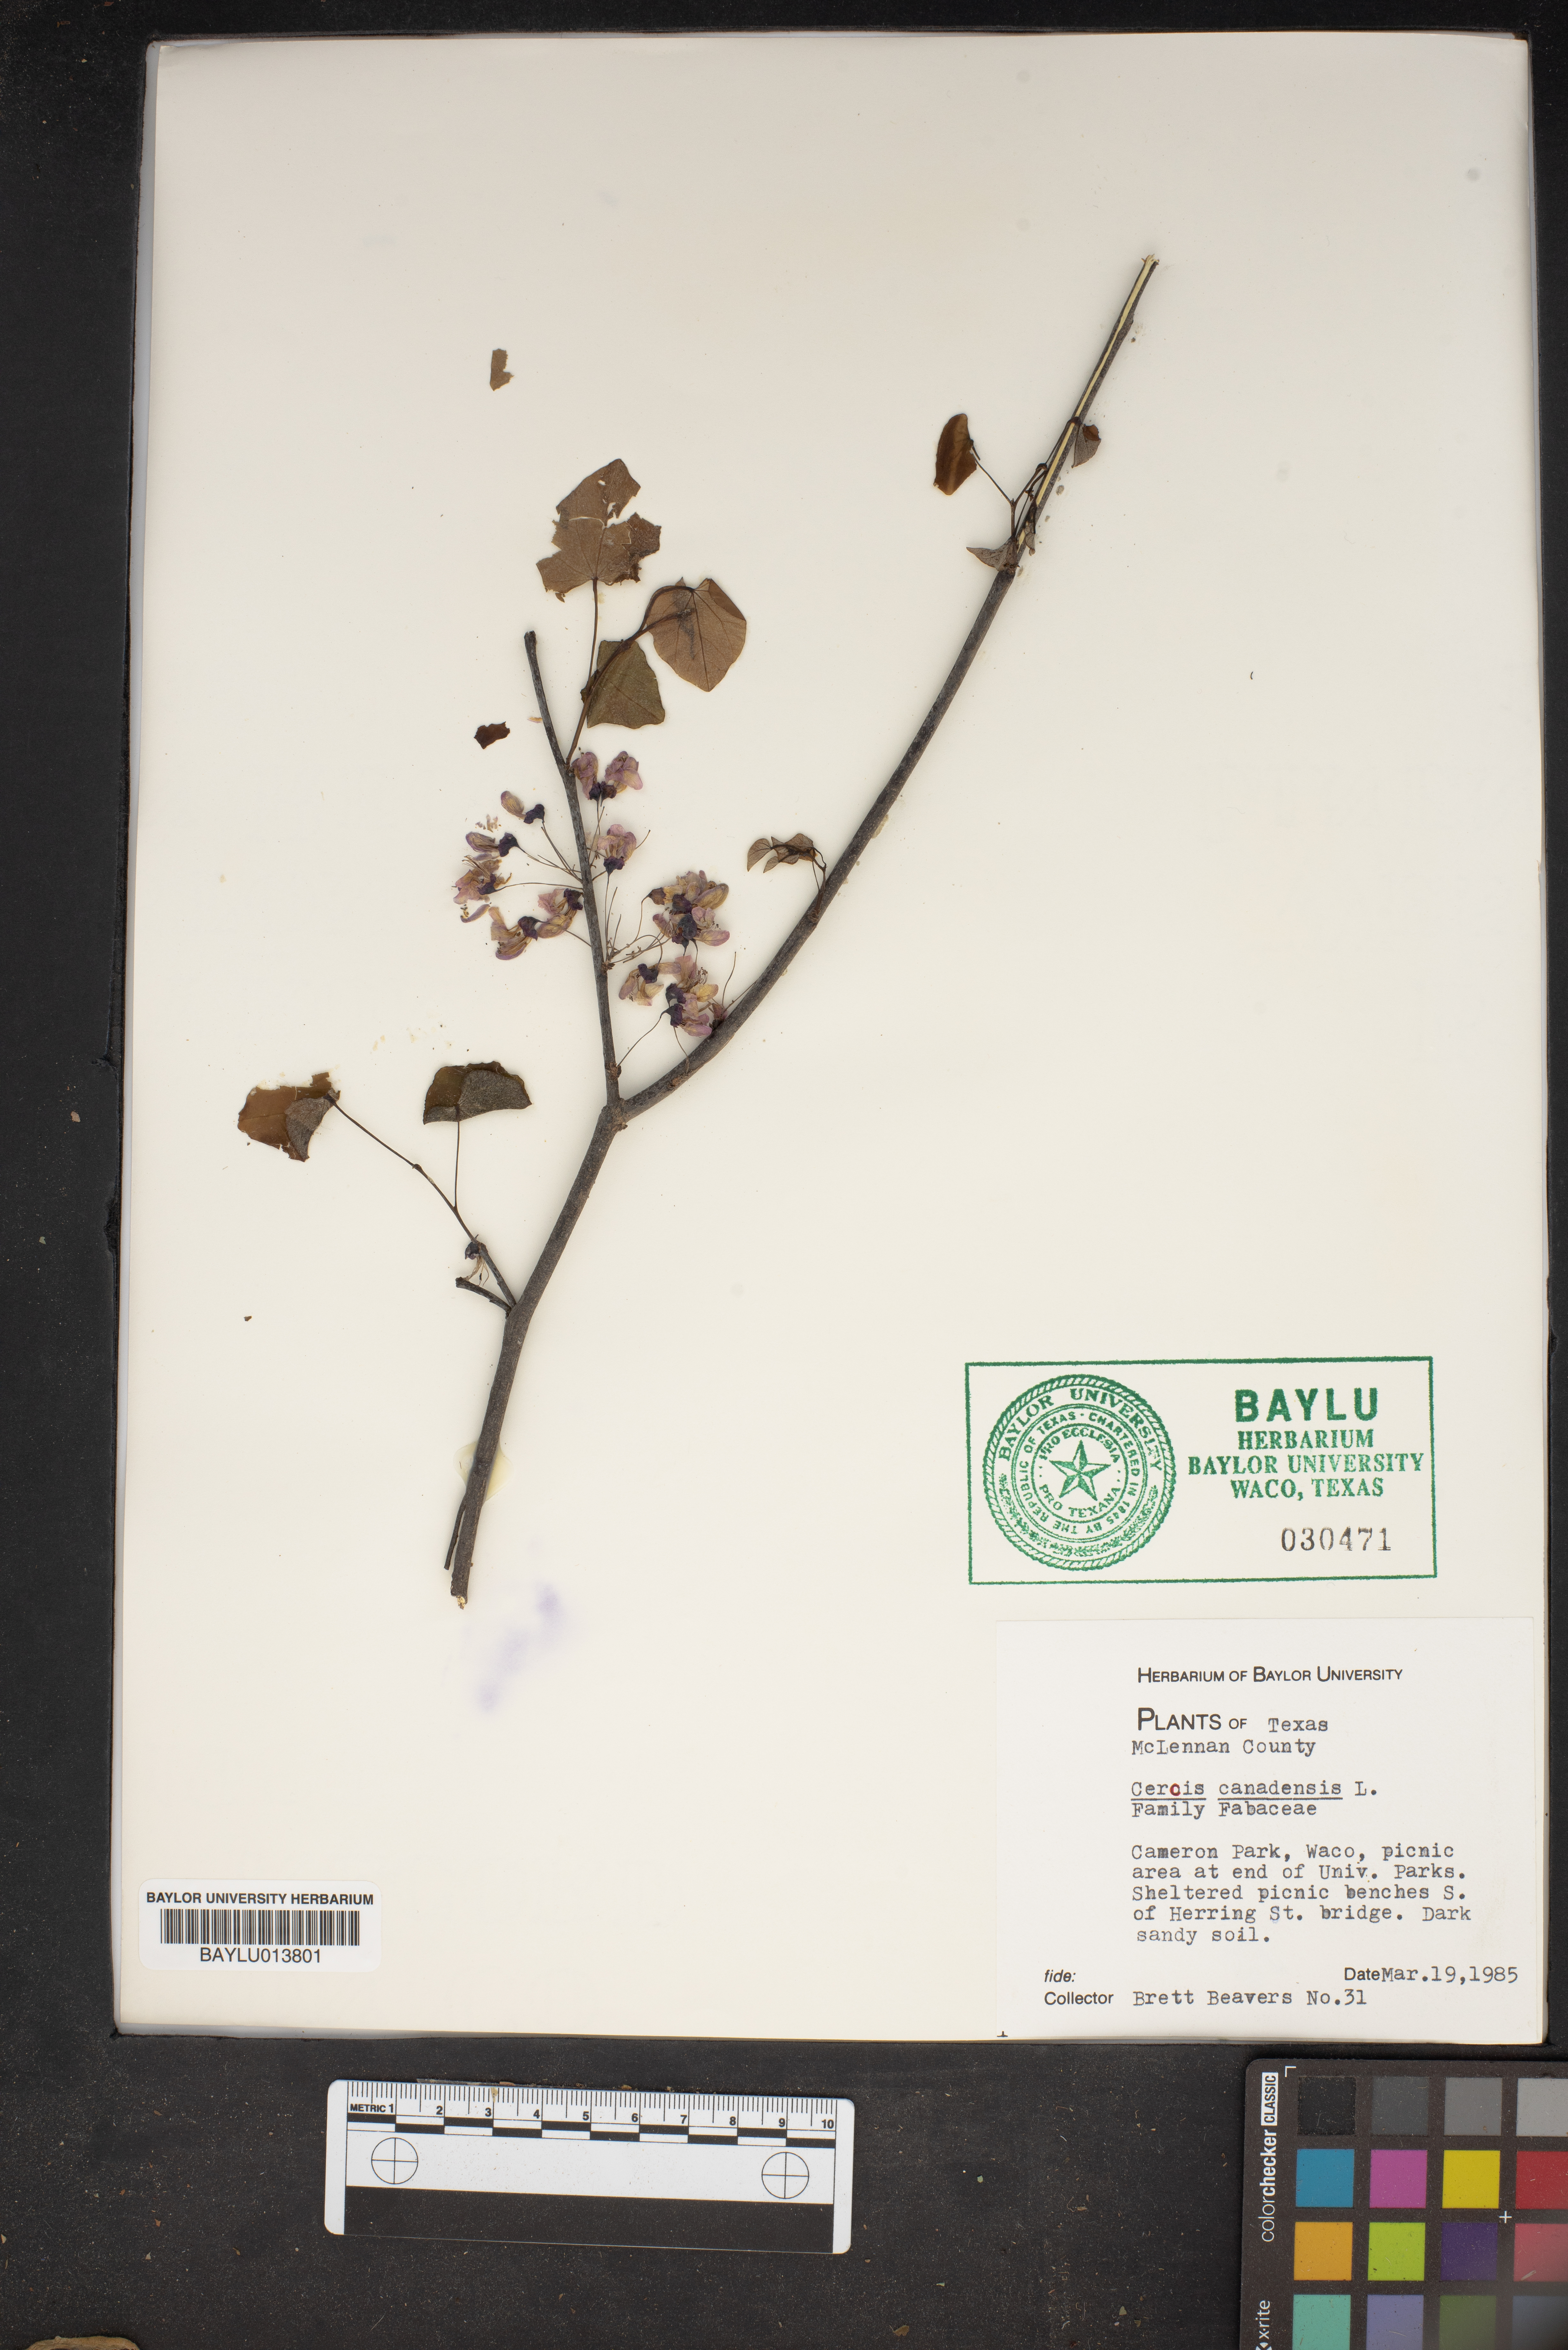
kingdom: Plantae
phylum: Tracheophyta
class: Magnoliopsida
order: Fabales
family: Fabaceae
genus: Cercis
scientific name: Cercis canadensis
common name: Eastern redbud
